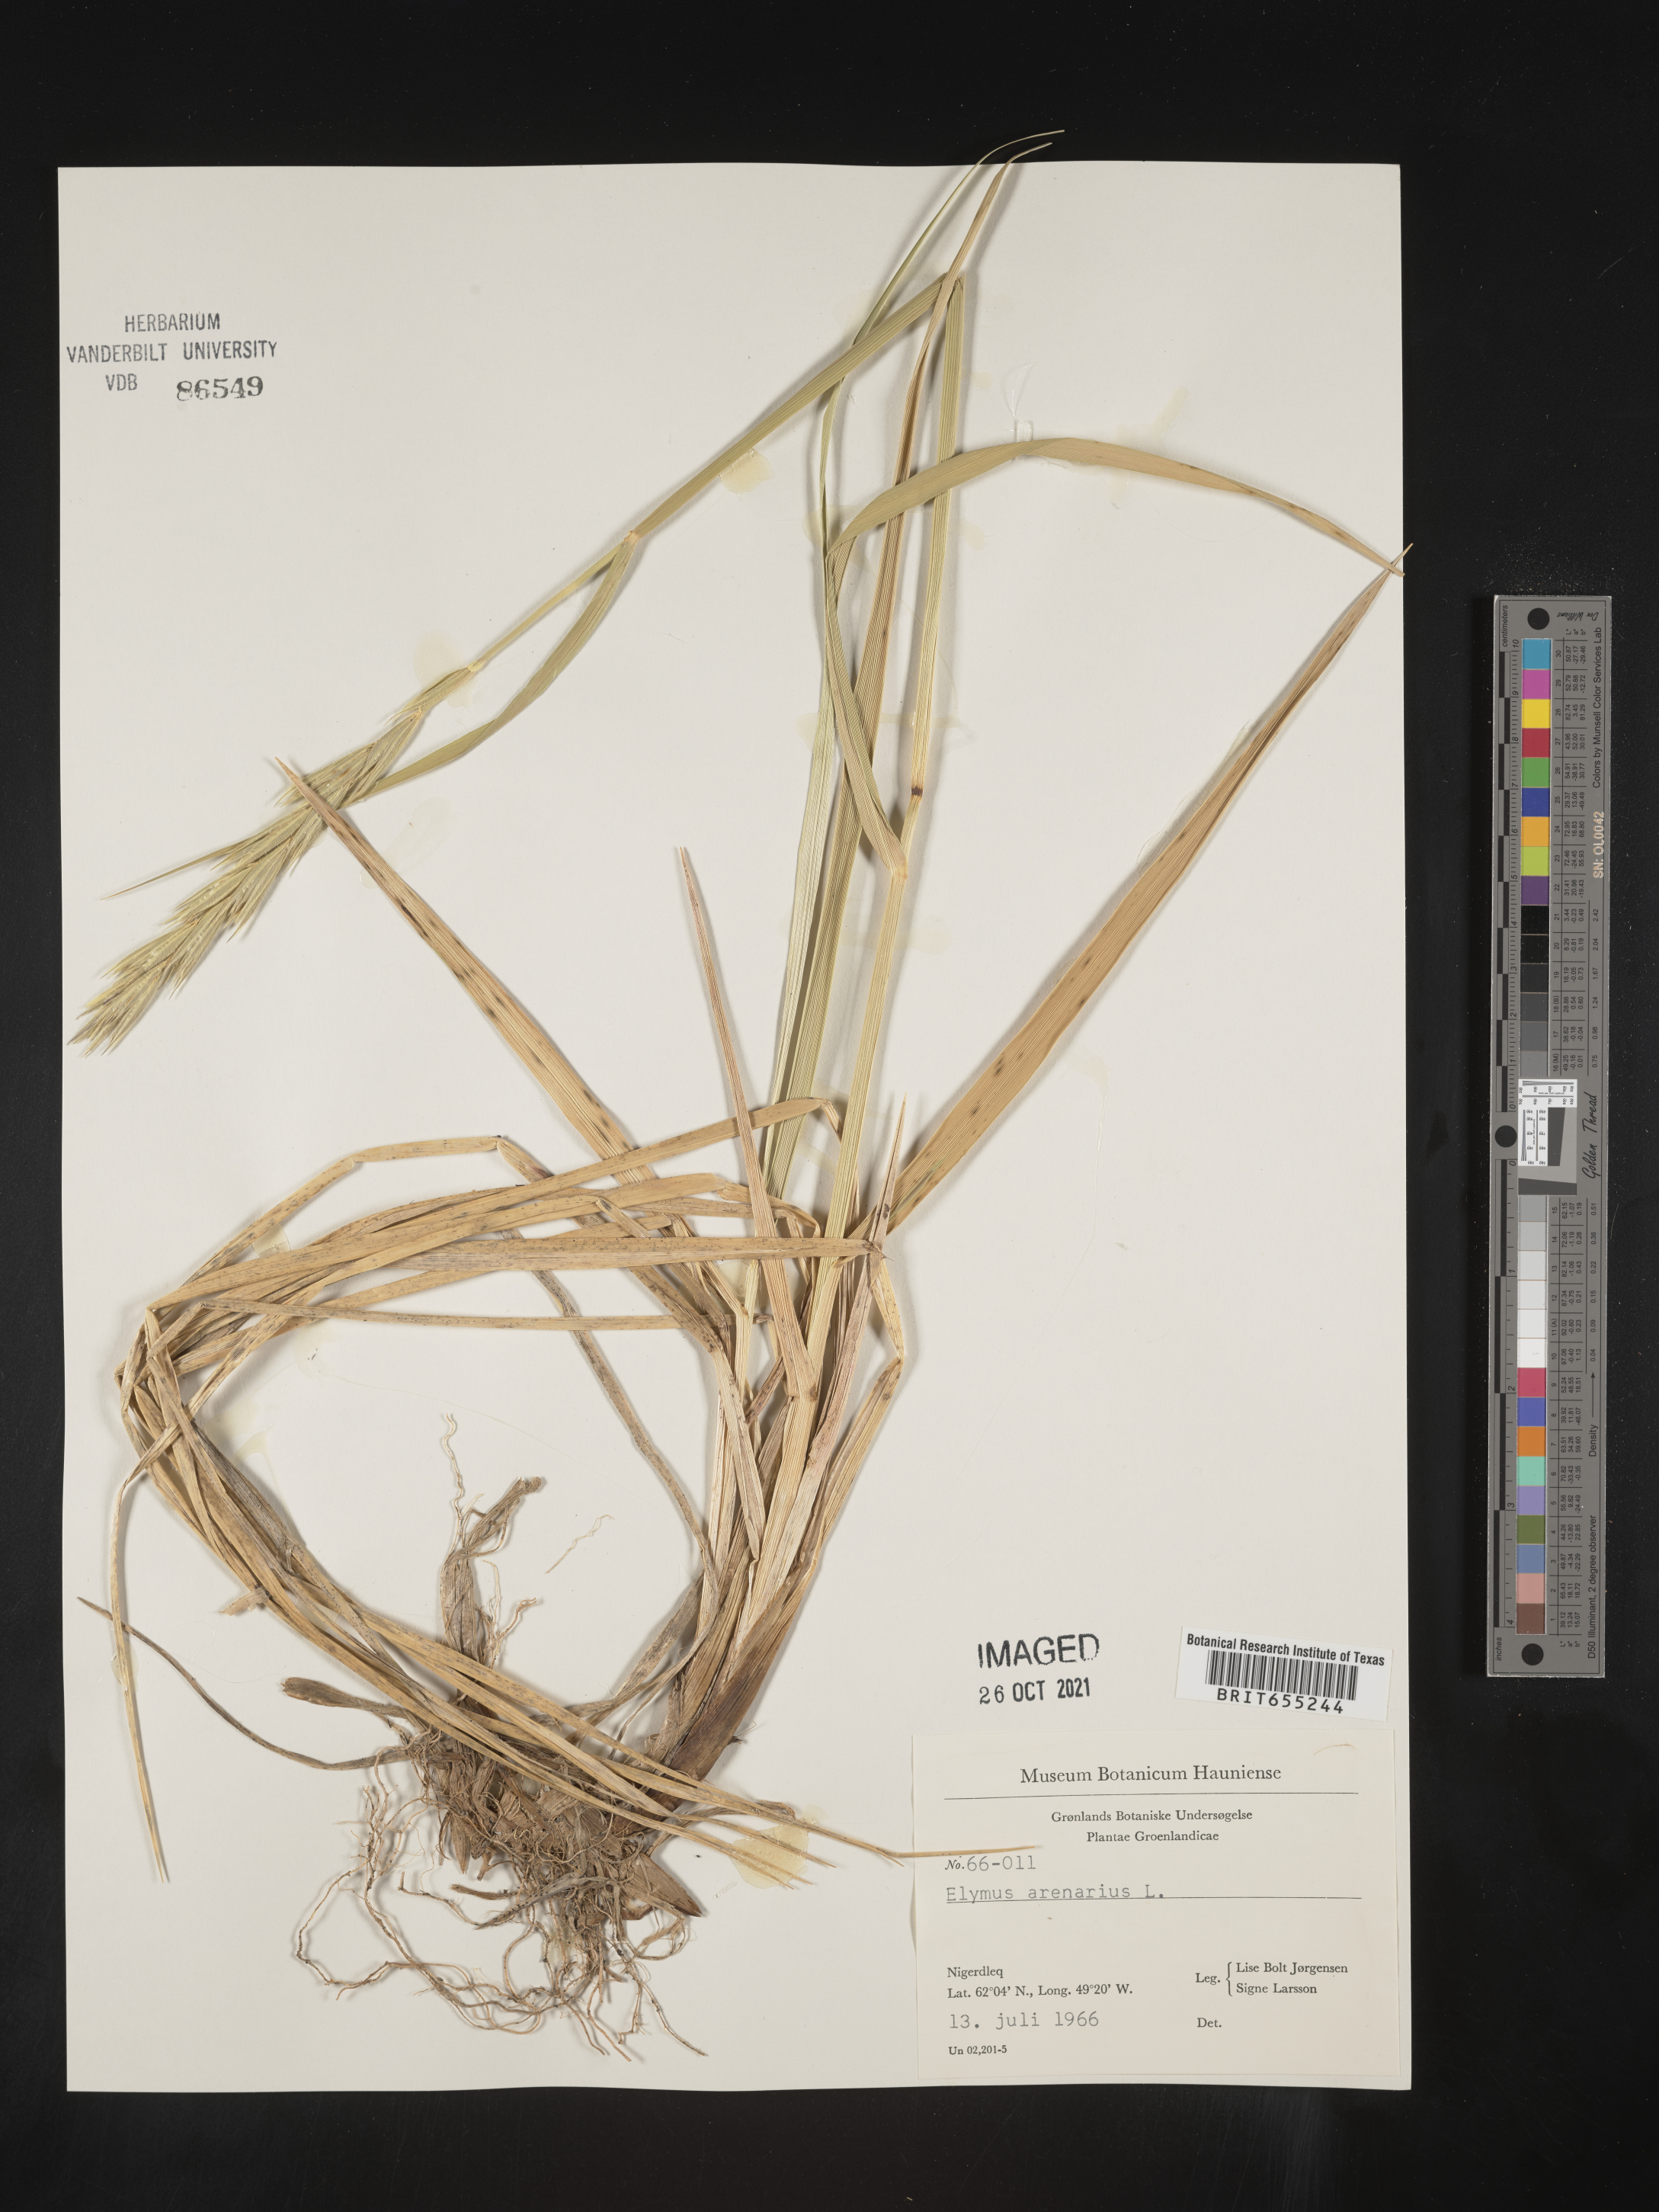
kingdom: Plantae
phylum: Tracheophyta
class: Liliopsida
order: Poales
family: Poaceae
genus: Elymus
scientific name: Elymus
